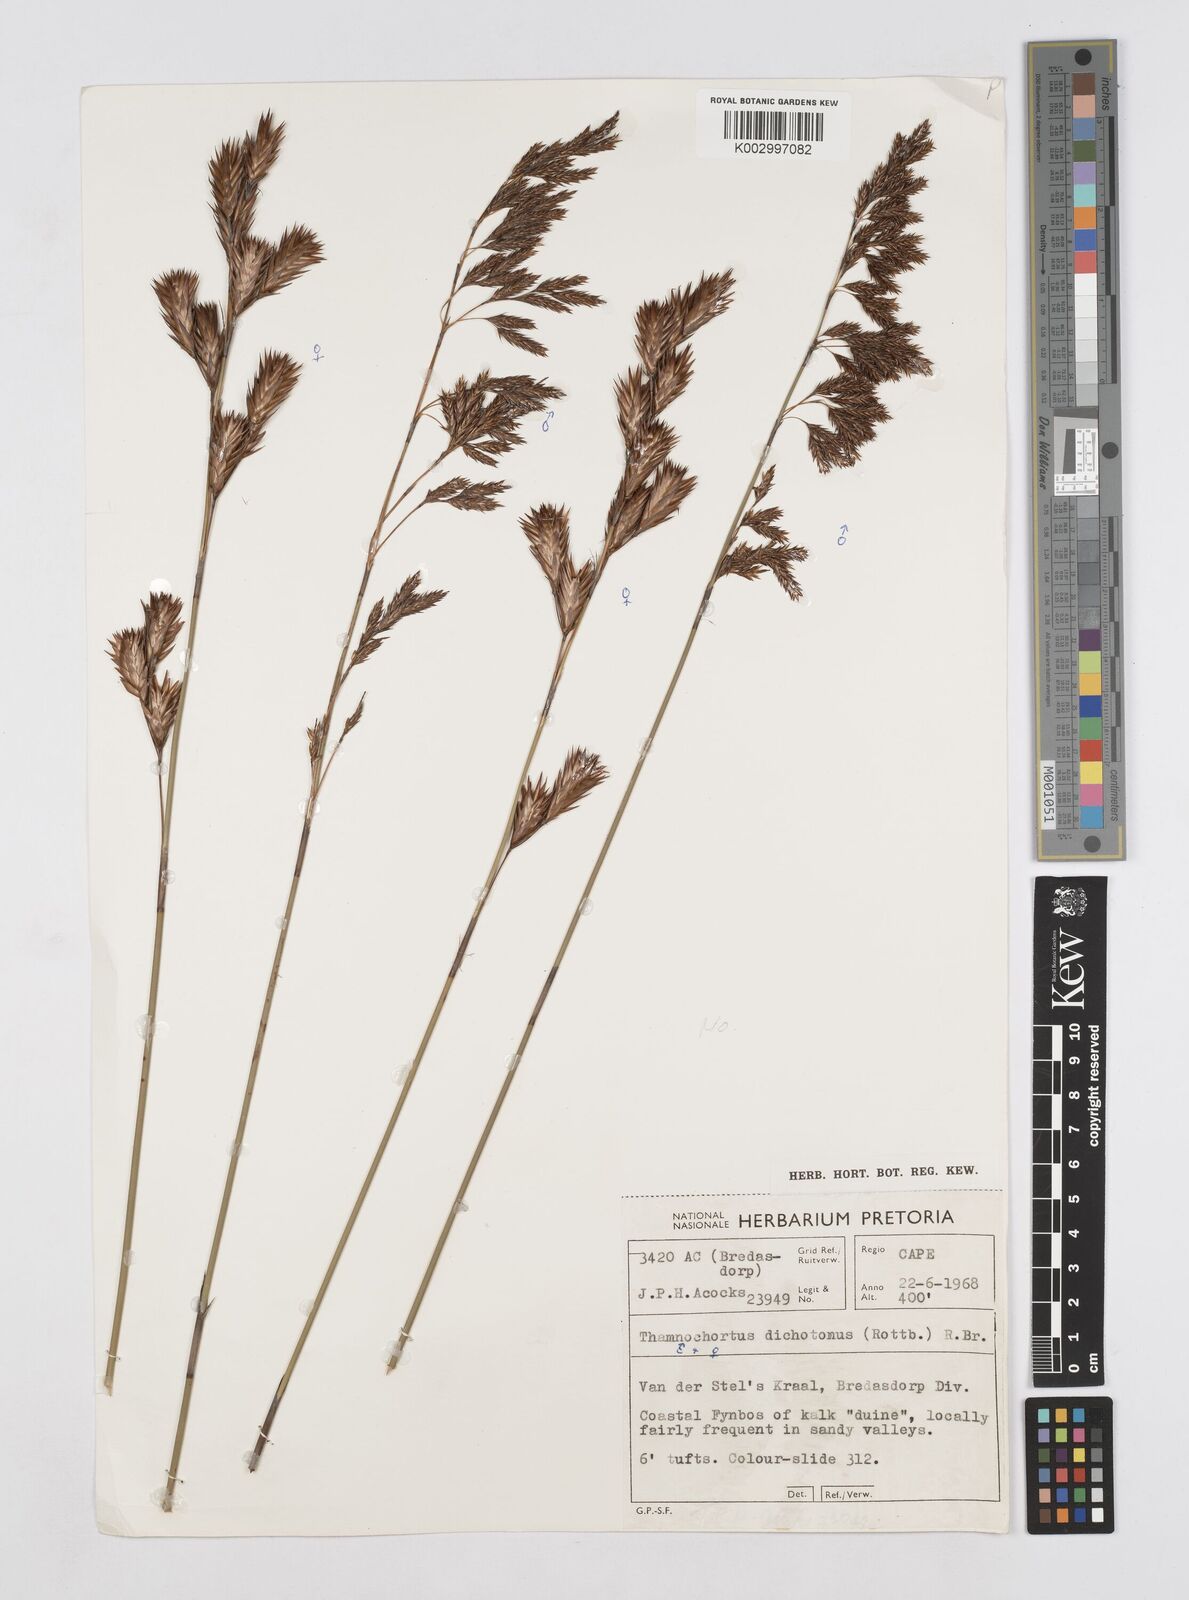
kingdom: Plantae
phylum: Tracheophyta
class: Liliopsida
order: Poales
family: Restionaceae
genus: Thamnochortus
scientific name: Thamnochortus insignis
